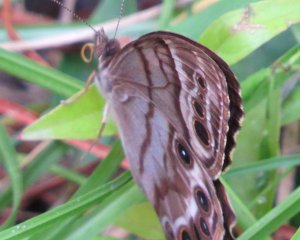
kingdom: Animalia
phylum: Arthropoda
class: Insecta
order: Lepidoptera
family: Nymphalidae
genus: Enodia
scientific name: Enodia portlandia
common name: Southern Pearly Eye
